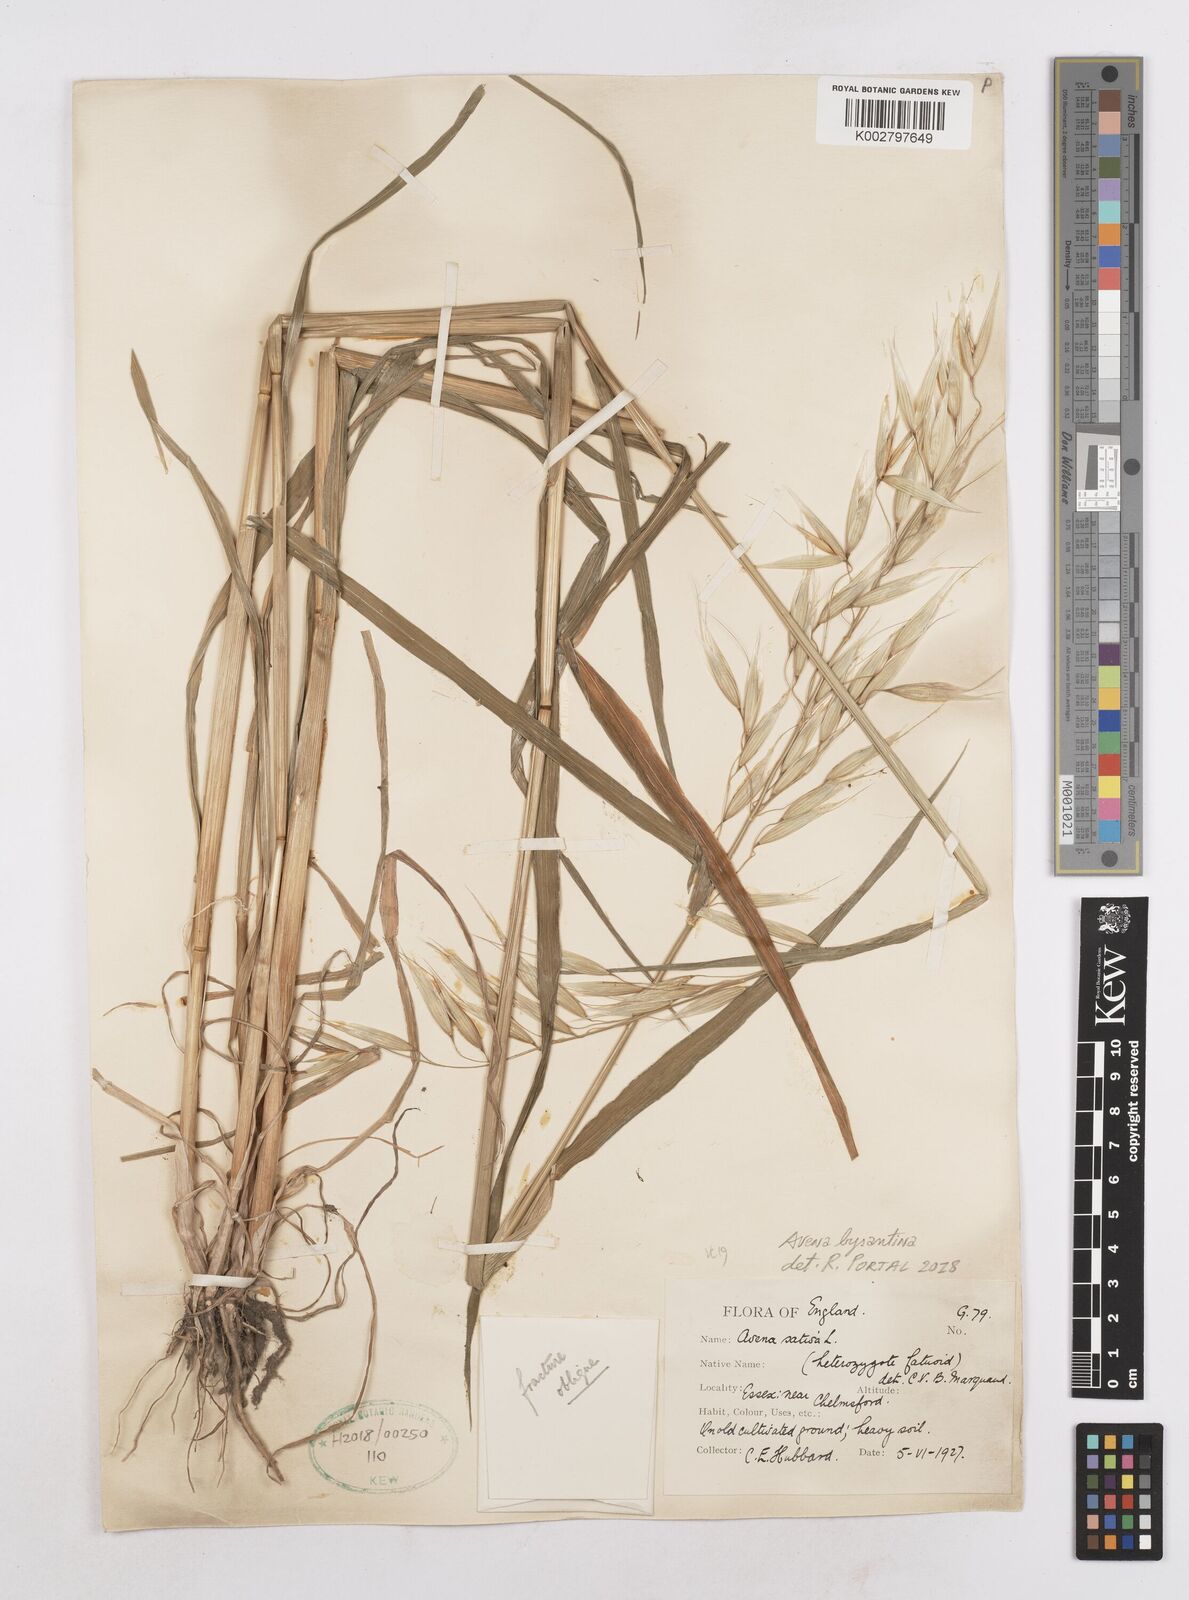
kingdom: Plantae
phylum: Tracheophyta
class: Liliopsida
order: Poales
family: Poaceae
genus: Avena
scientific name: Avena byzantina
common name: Algerian oat
